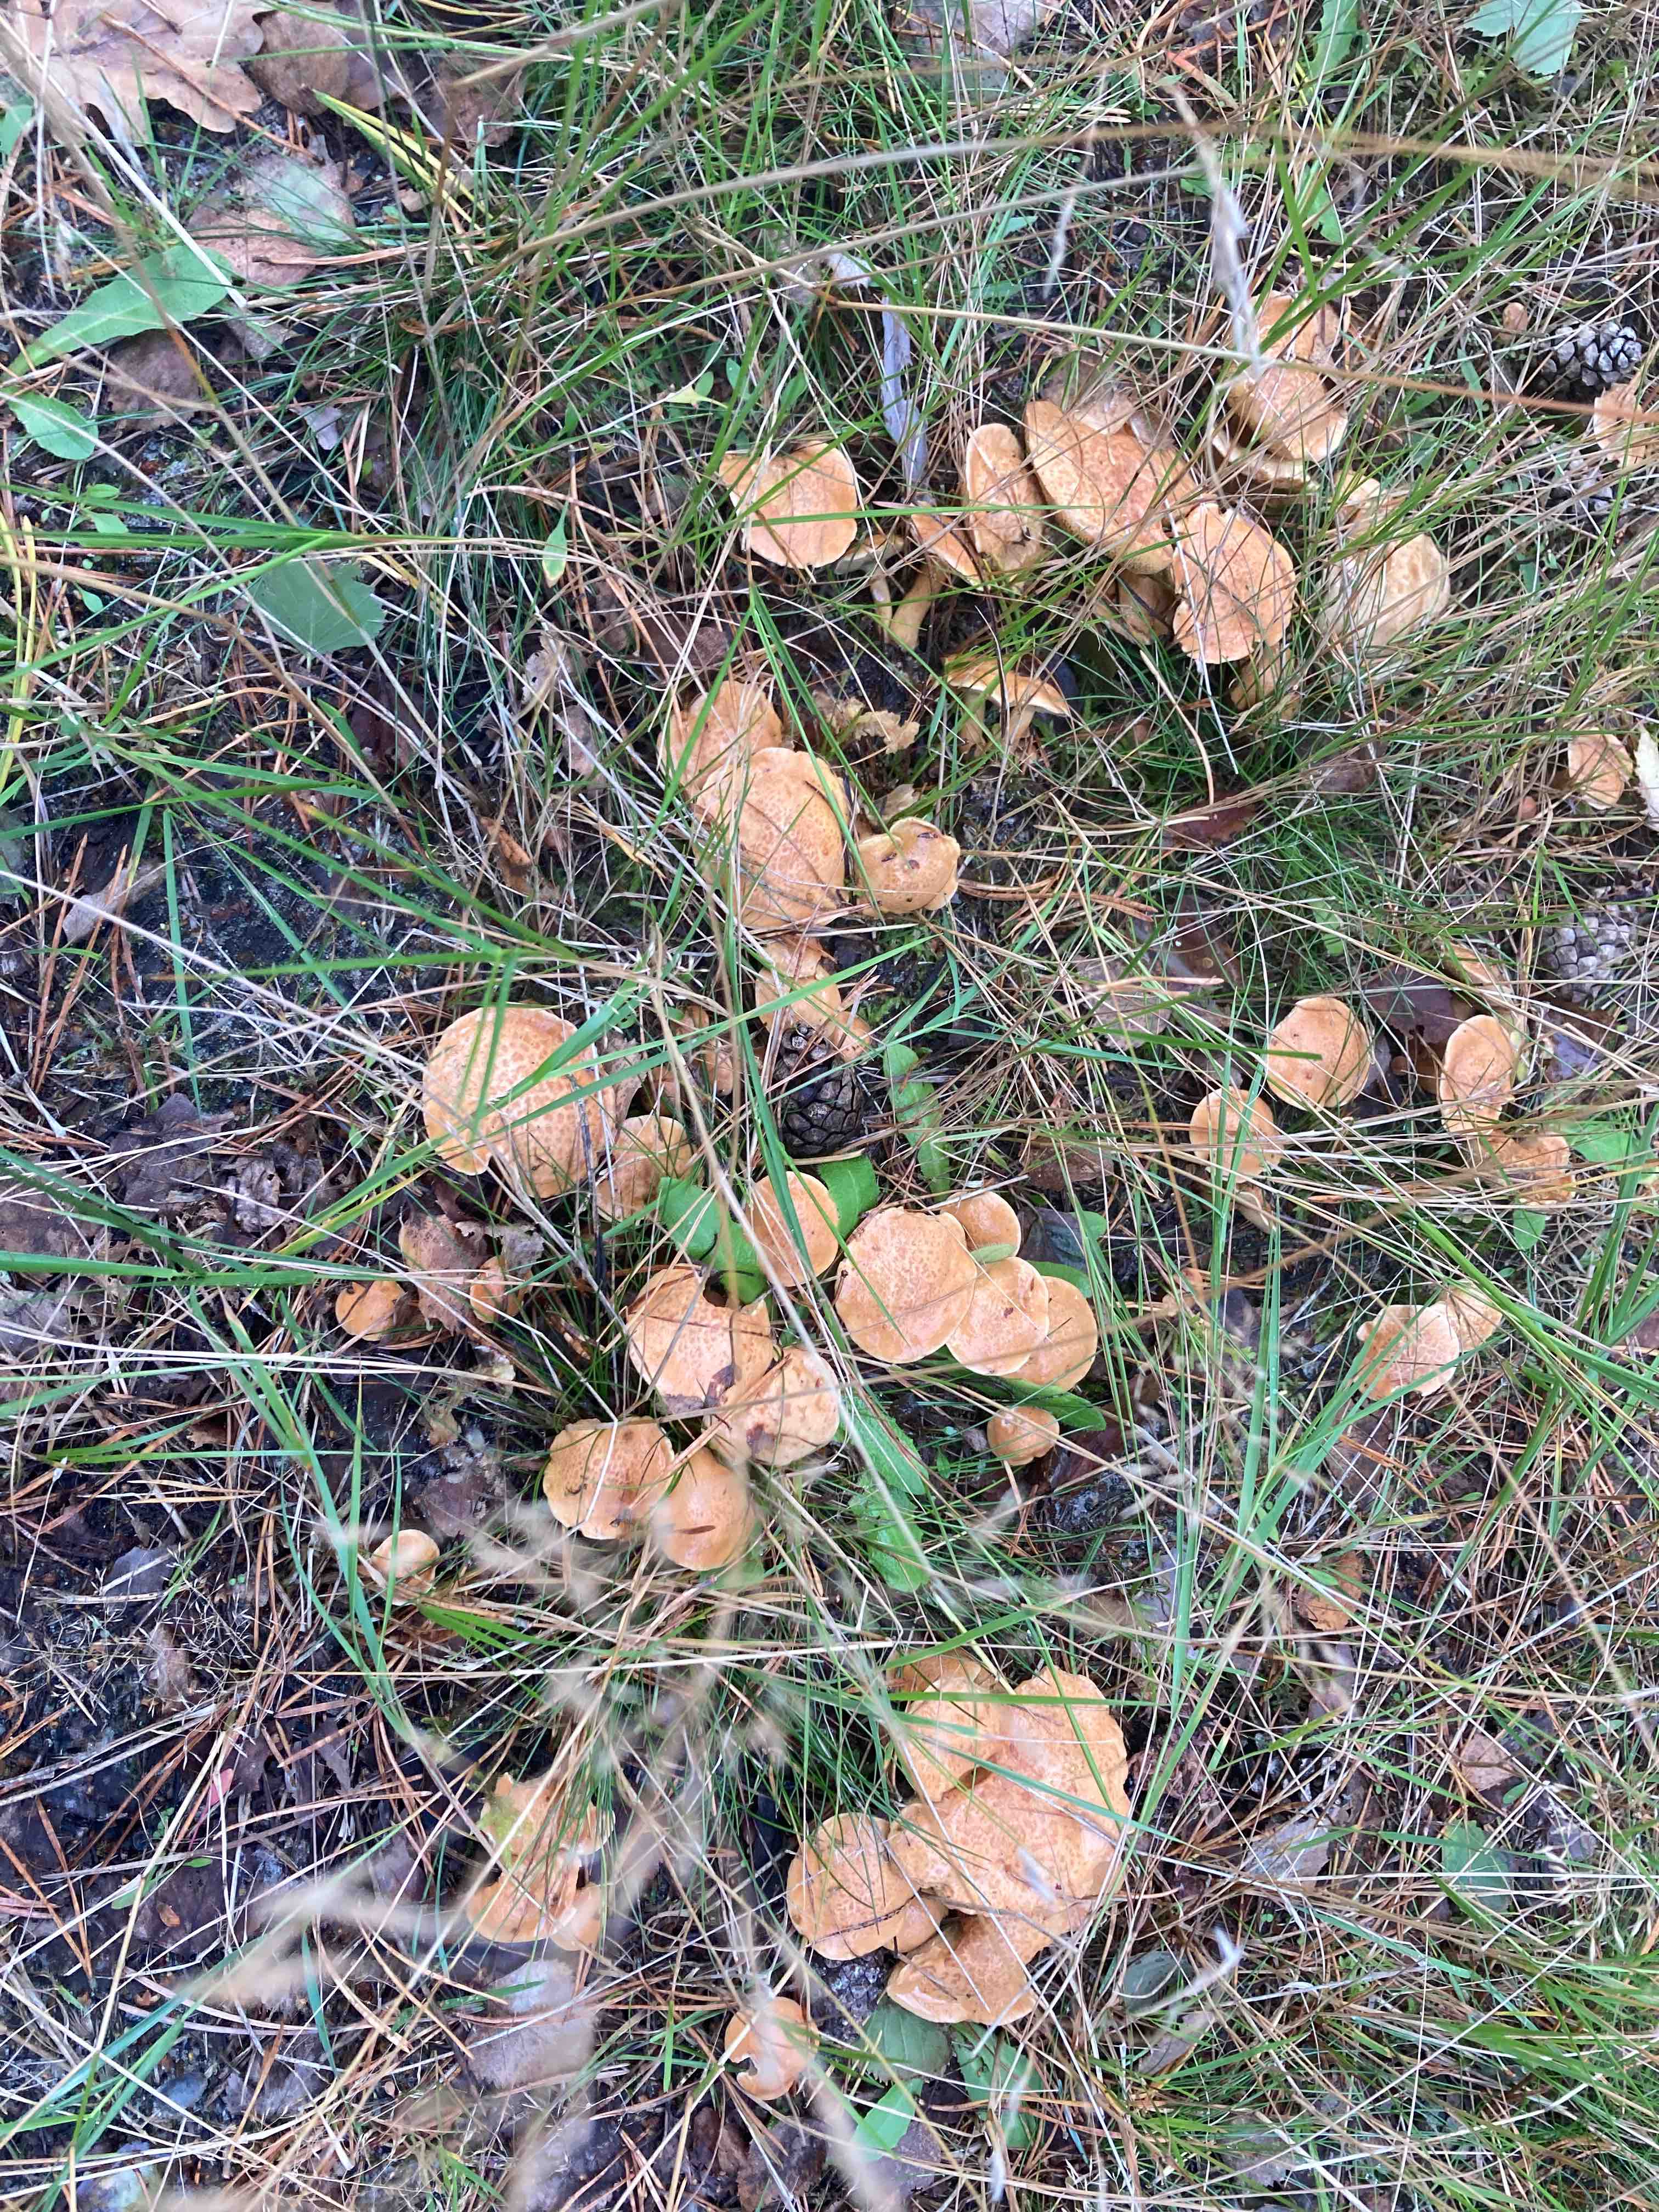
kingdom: Fungi
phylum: Basidiomycota
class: Agaricomycetes
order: Boletales
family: Suillaceae
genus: Suillus
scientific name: Suillus bovinus
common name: grovporet slimrørhat
